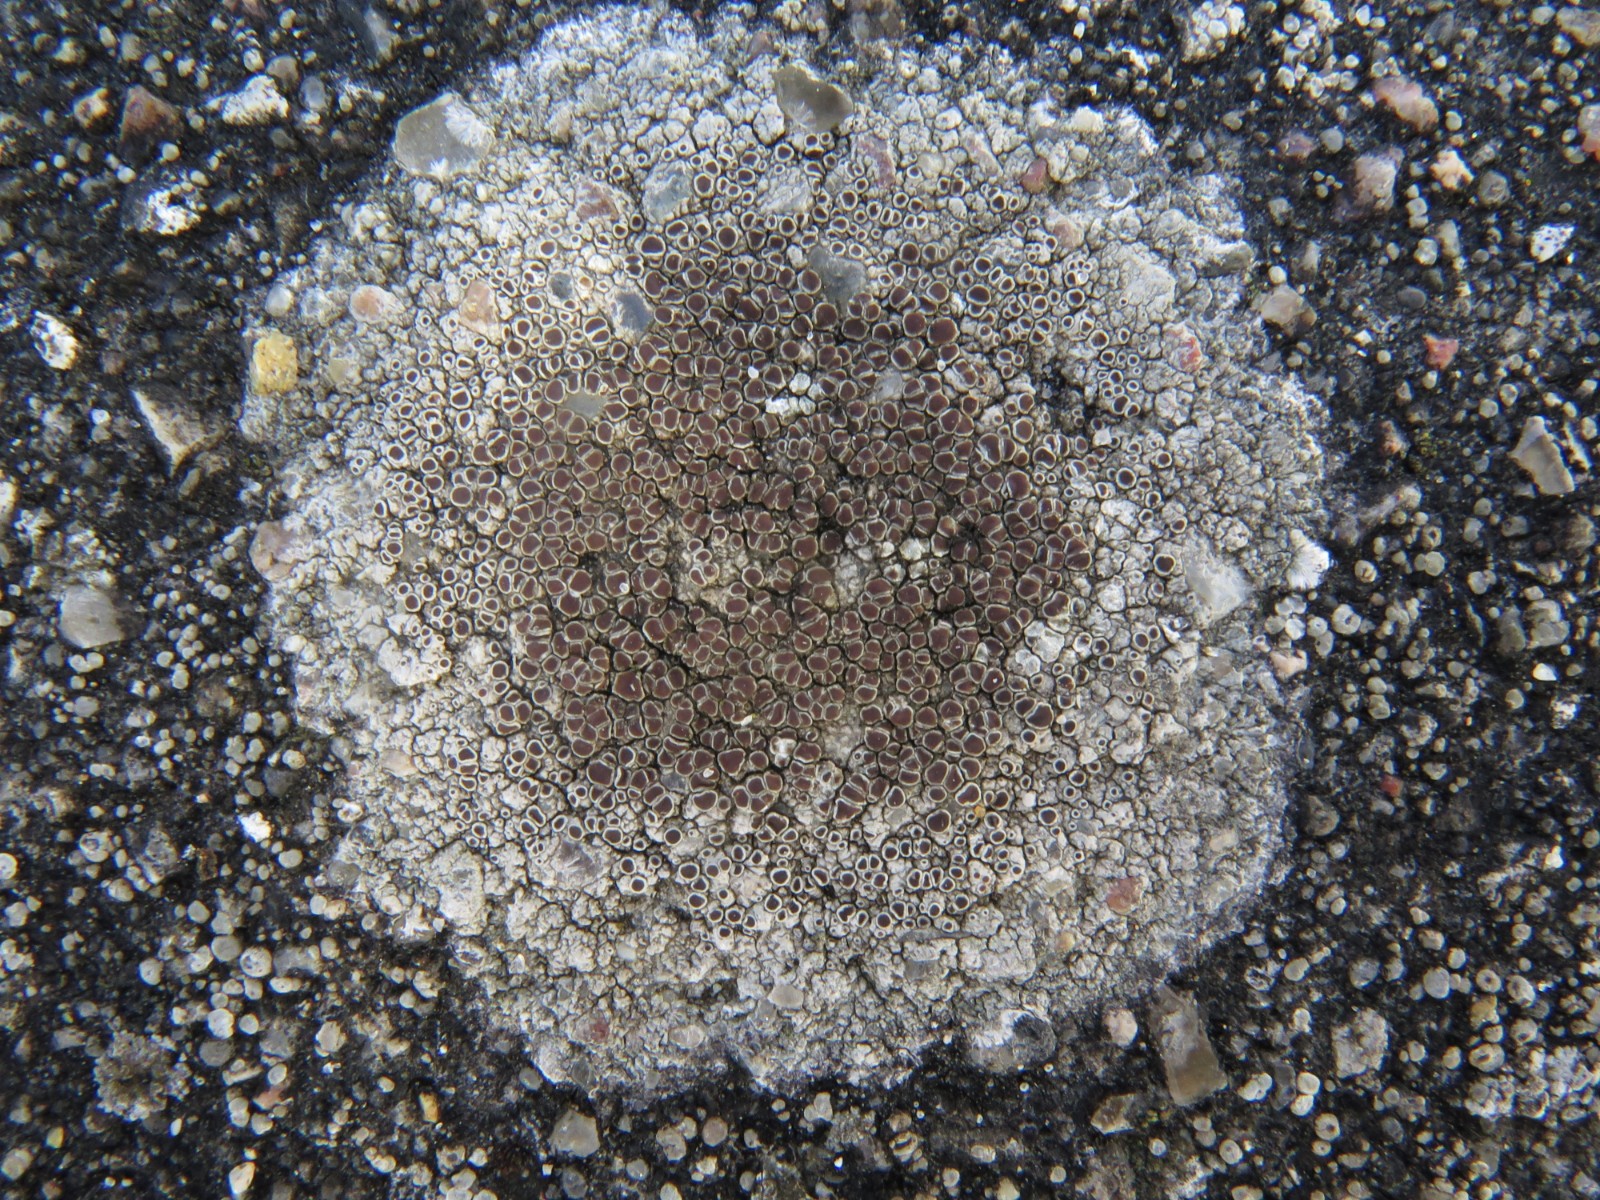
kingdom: Fungi
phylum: Ascomycota
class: Lecanoromycetes
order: Lecanorales
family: Lecanoraceae
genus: Lecanora
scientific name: Lecanora campestris
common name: mur-kantskivelav
